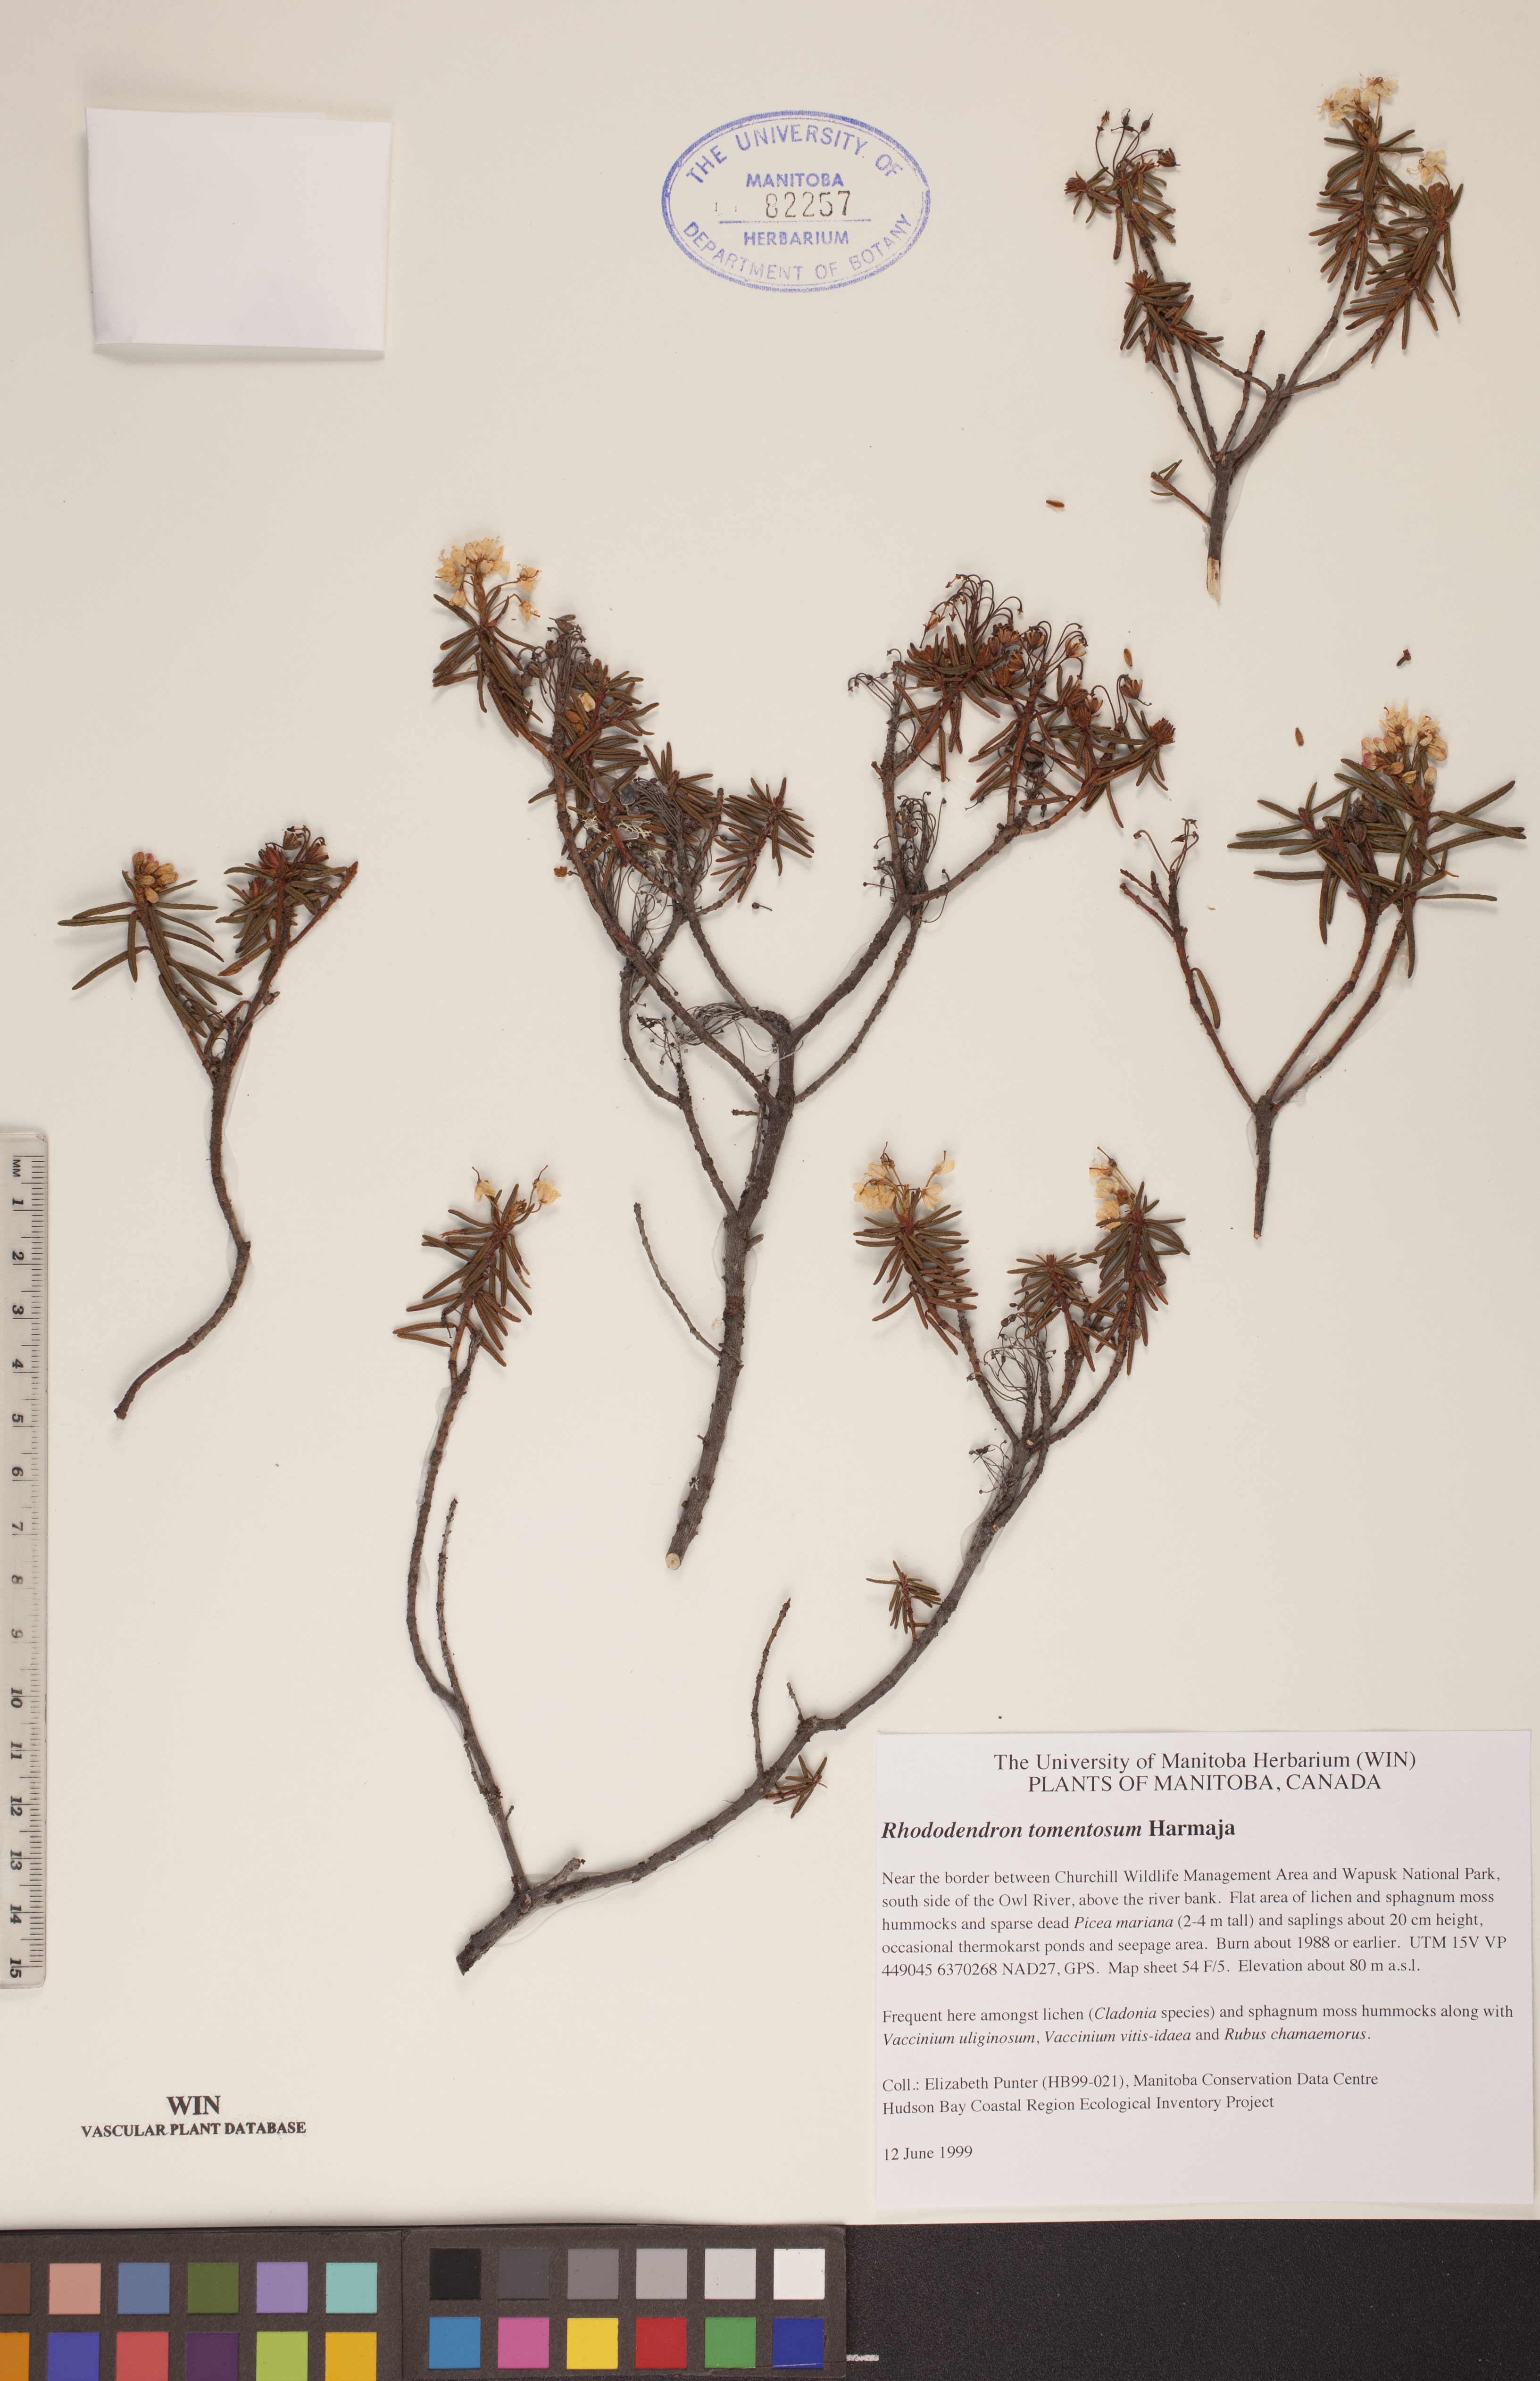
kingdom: Plantae
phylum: Tracheophyta
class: Magnoliopsida
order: Ericales
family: Ericaceae
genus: Rhododendron
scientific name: Rhododendron tomentosum
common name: Marsh labrador tea
